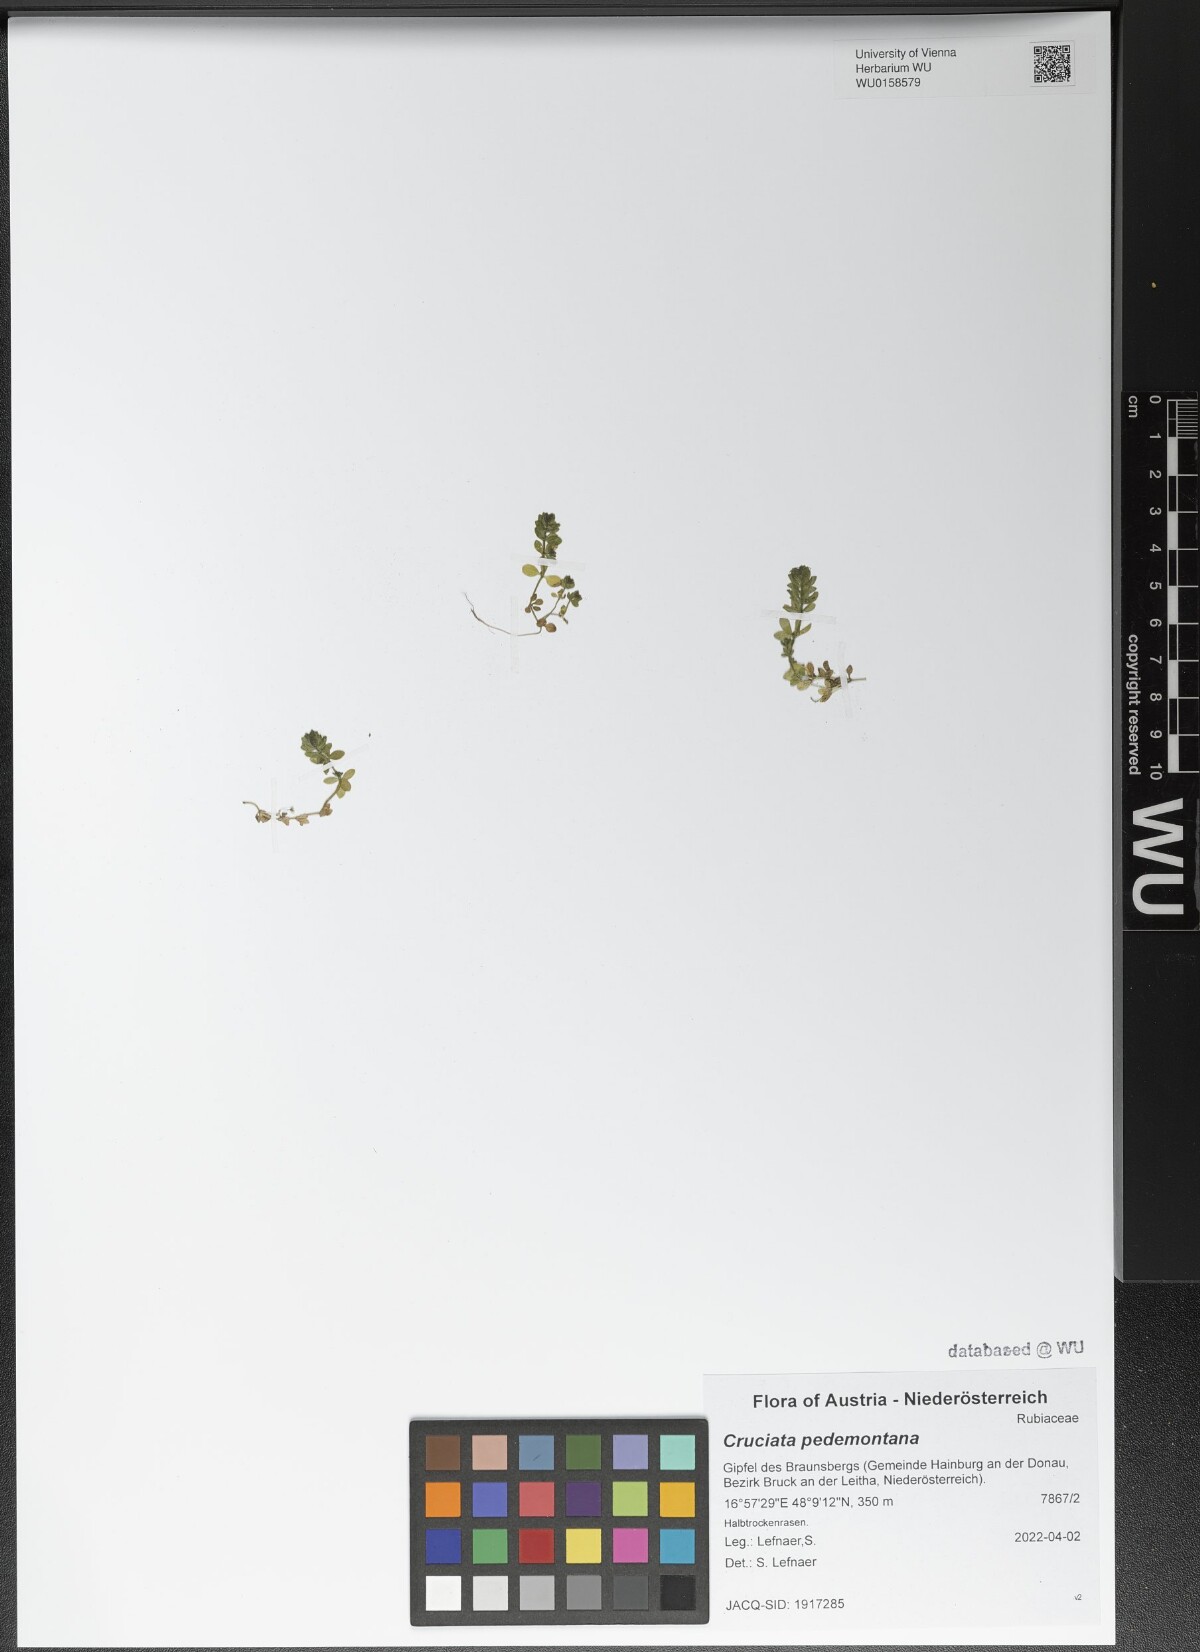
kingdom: Plantae
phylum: Tracheophyta
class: Magnoliopsida
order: Gentianales
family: Rubiaceae
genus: Cruciata
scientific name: Cruciata pedemontana
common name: Piedmont bedstraw
